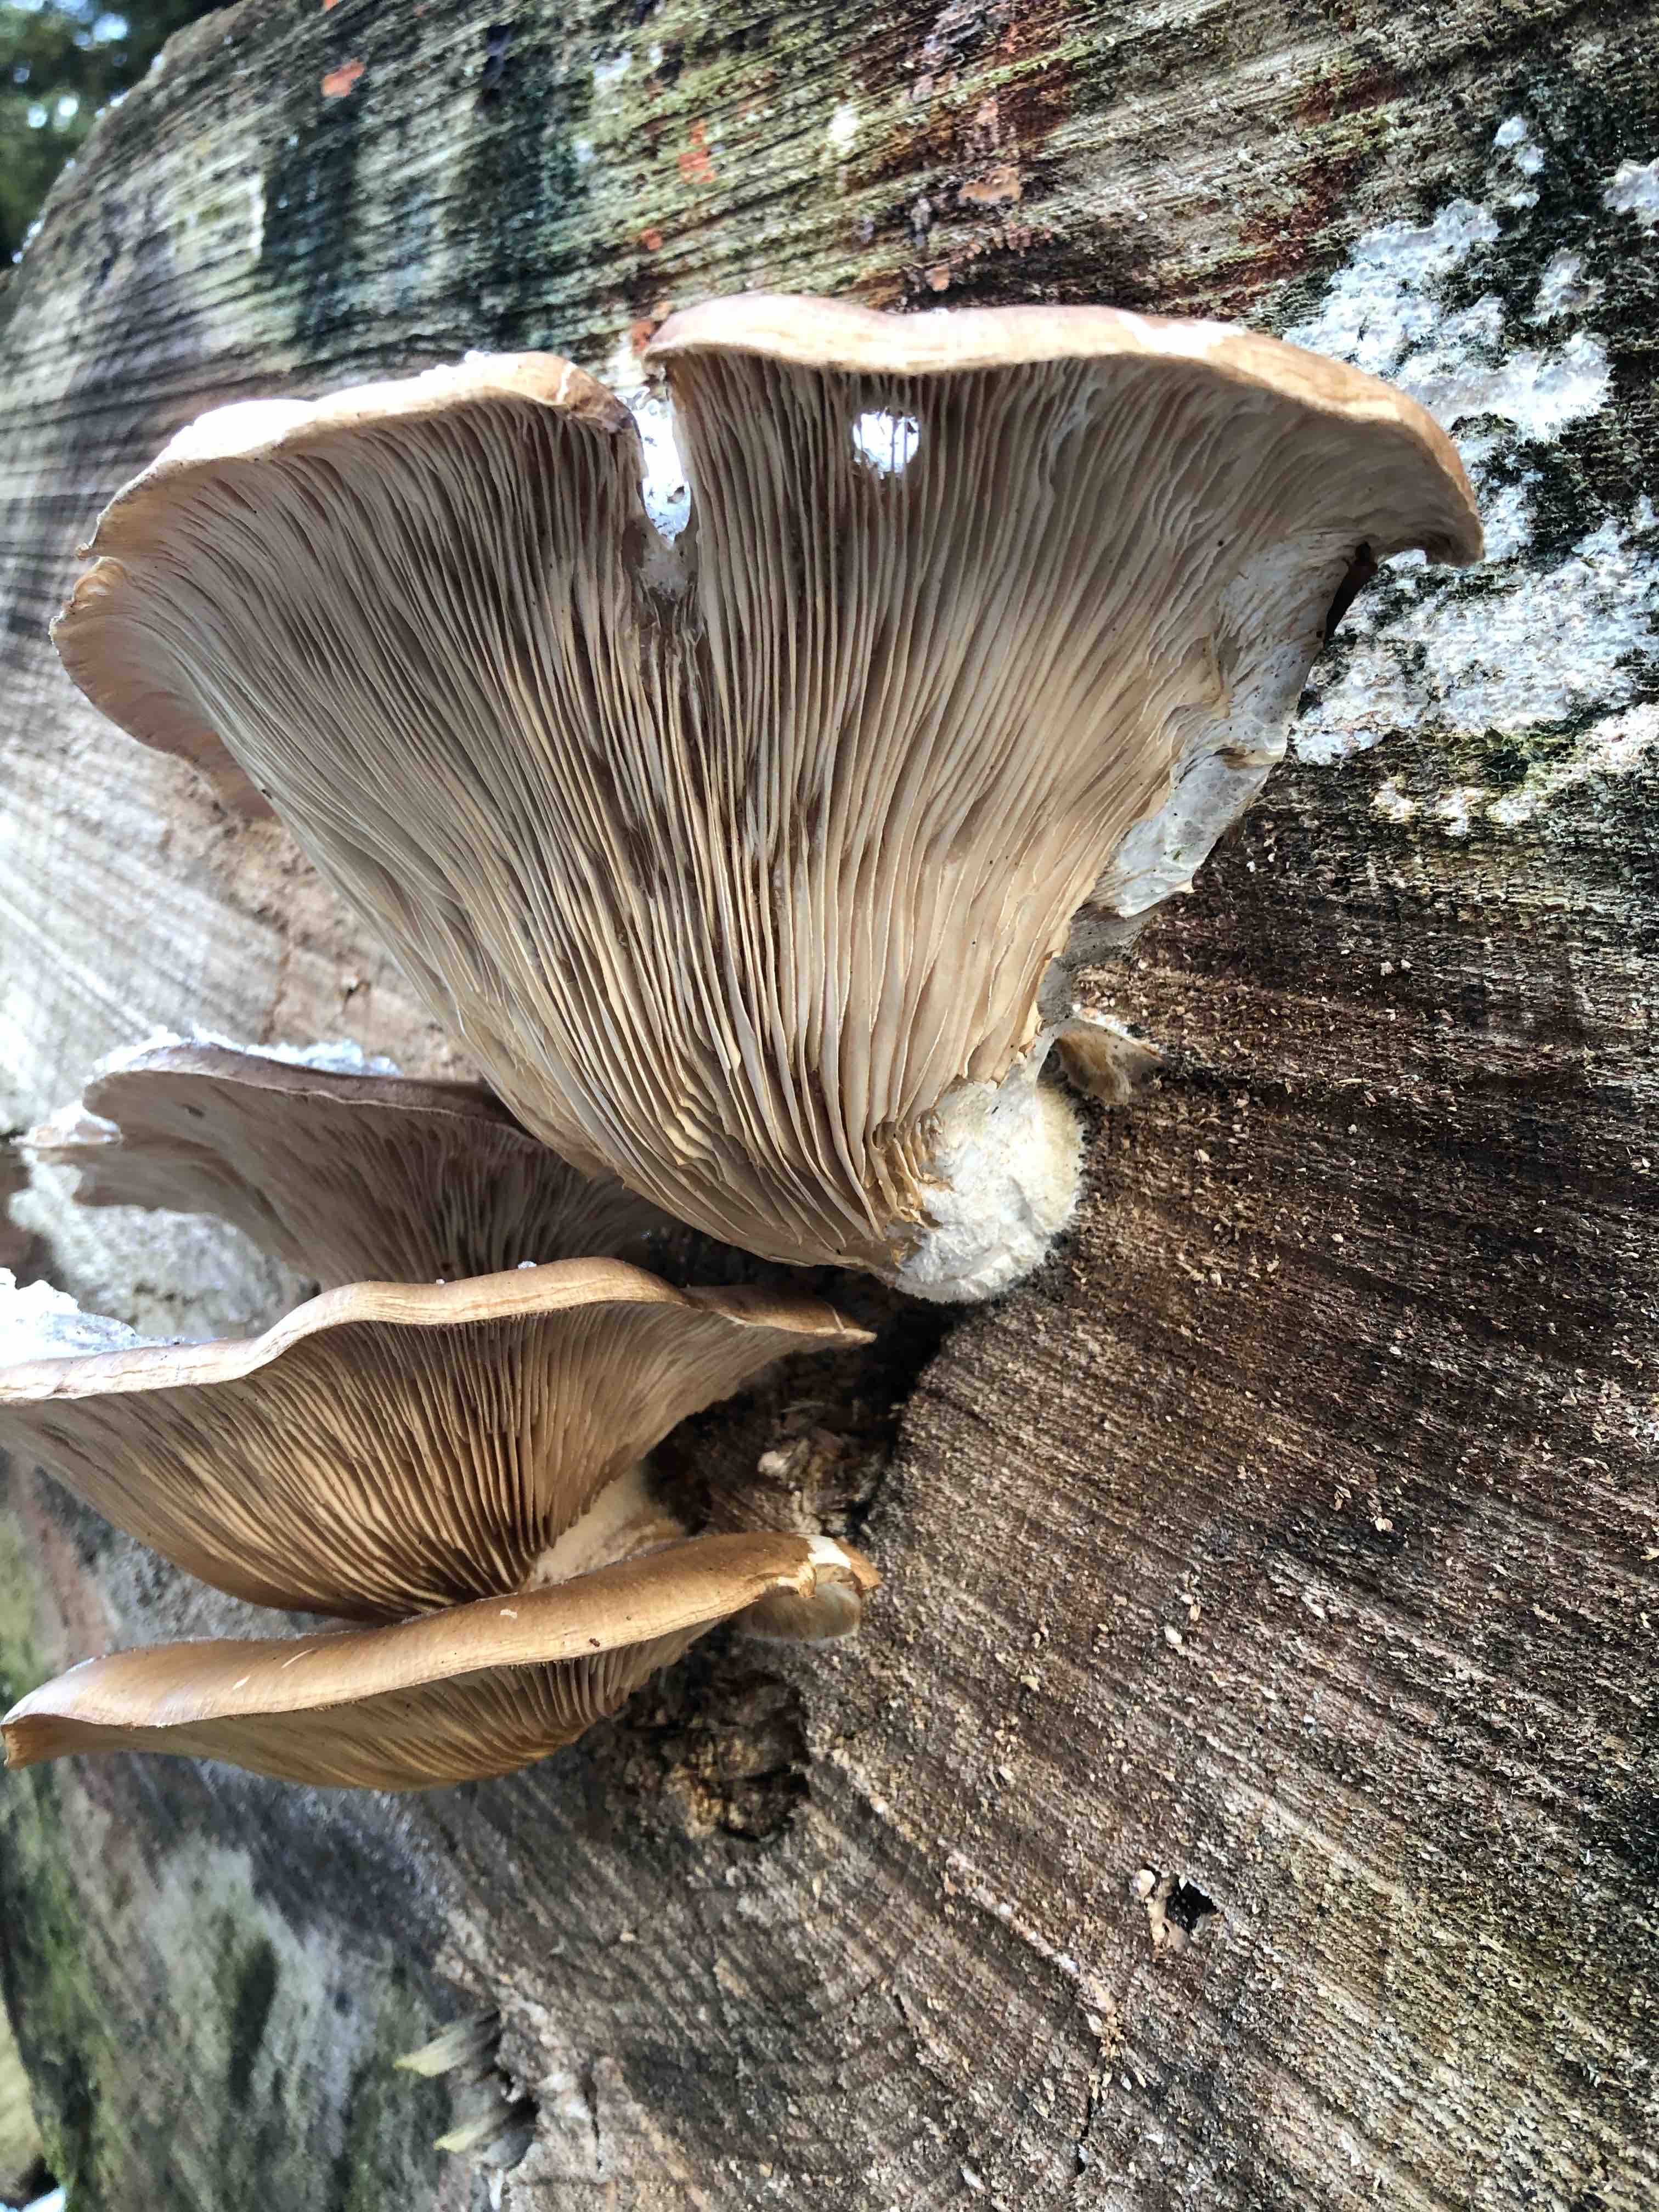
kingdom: Fungi
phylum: Basidiomycota
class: Agaricomycetes
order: Agaricales
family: Pleurotaceae
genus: Pleurotus
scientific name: Pleurotus ostreatus
